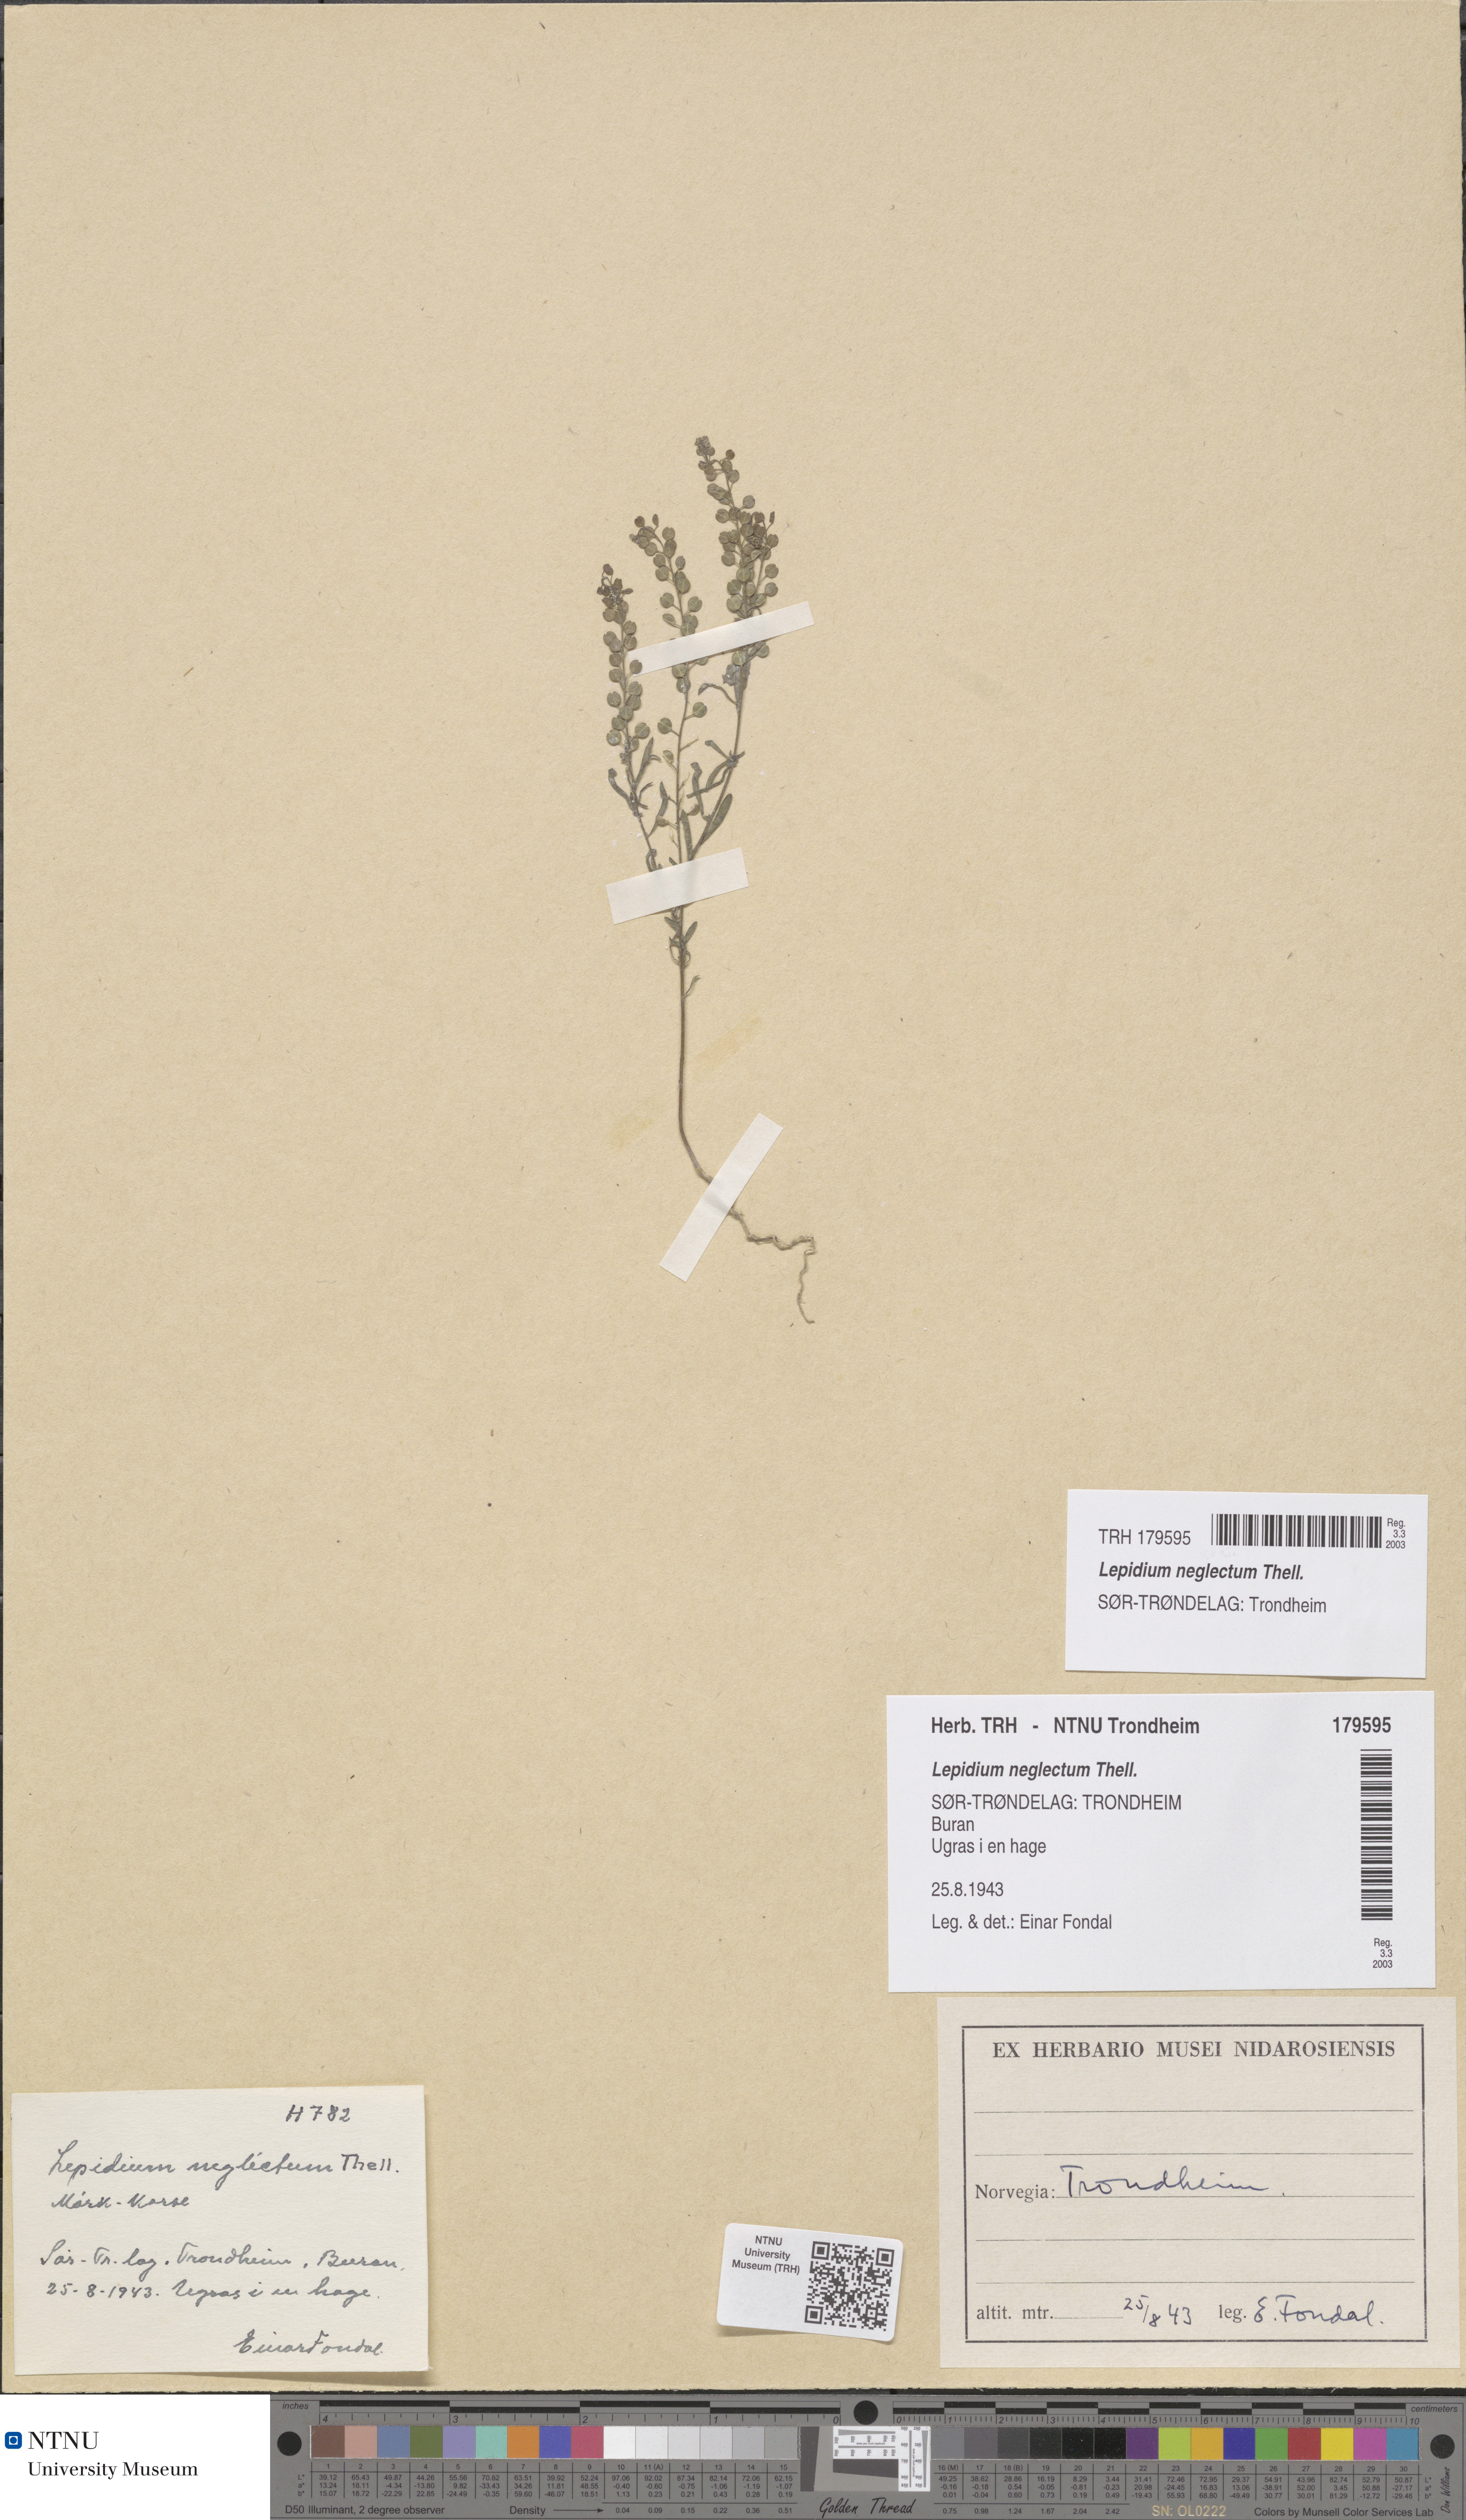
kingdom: Plantae
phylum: Tracheophyta
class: Magnoliopsida
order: Brassicales
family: Brassicaceae
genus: Lepidium
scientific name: Lepidium densiflorum
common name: Miner's pepperwort
